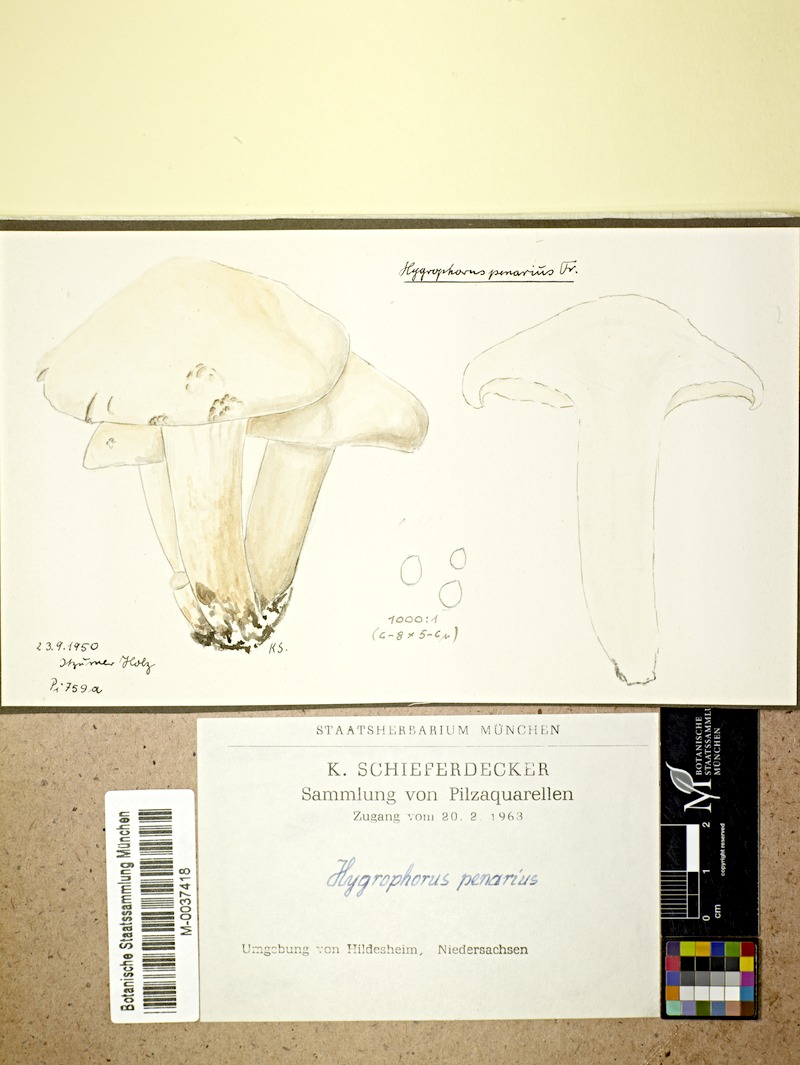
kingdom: Fungi
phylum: Basidiomycota
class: Agaricomycetes
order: Agaricales
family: Hygrophoraceae
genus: Hygrophorus
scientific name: Hygrophorus penarius
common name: Matt woodwax
